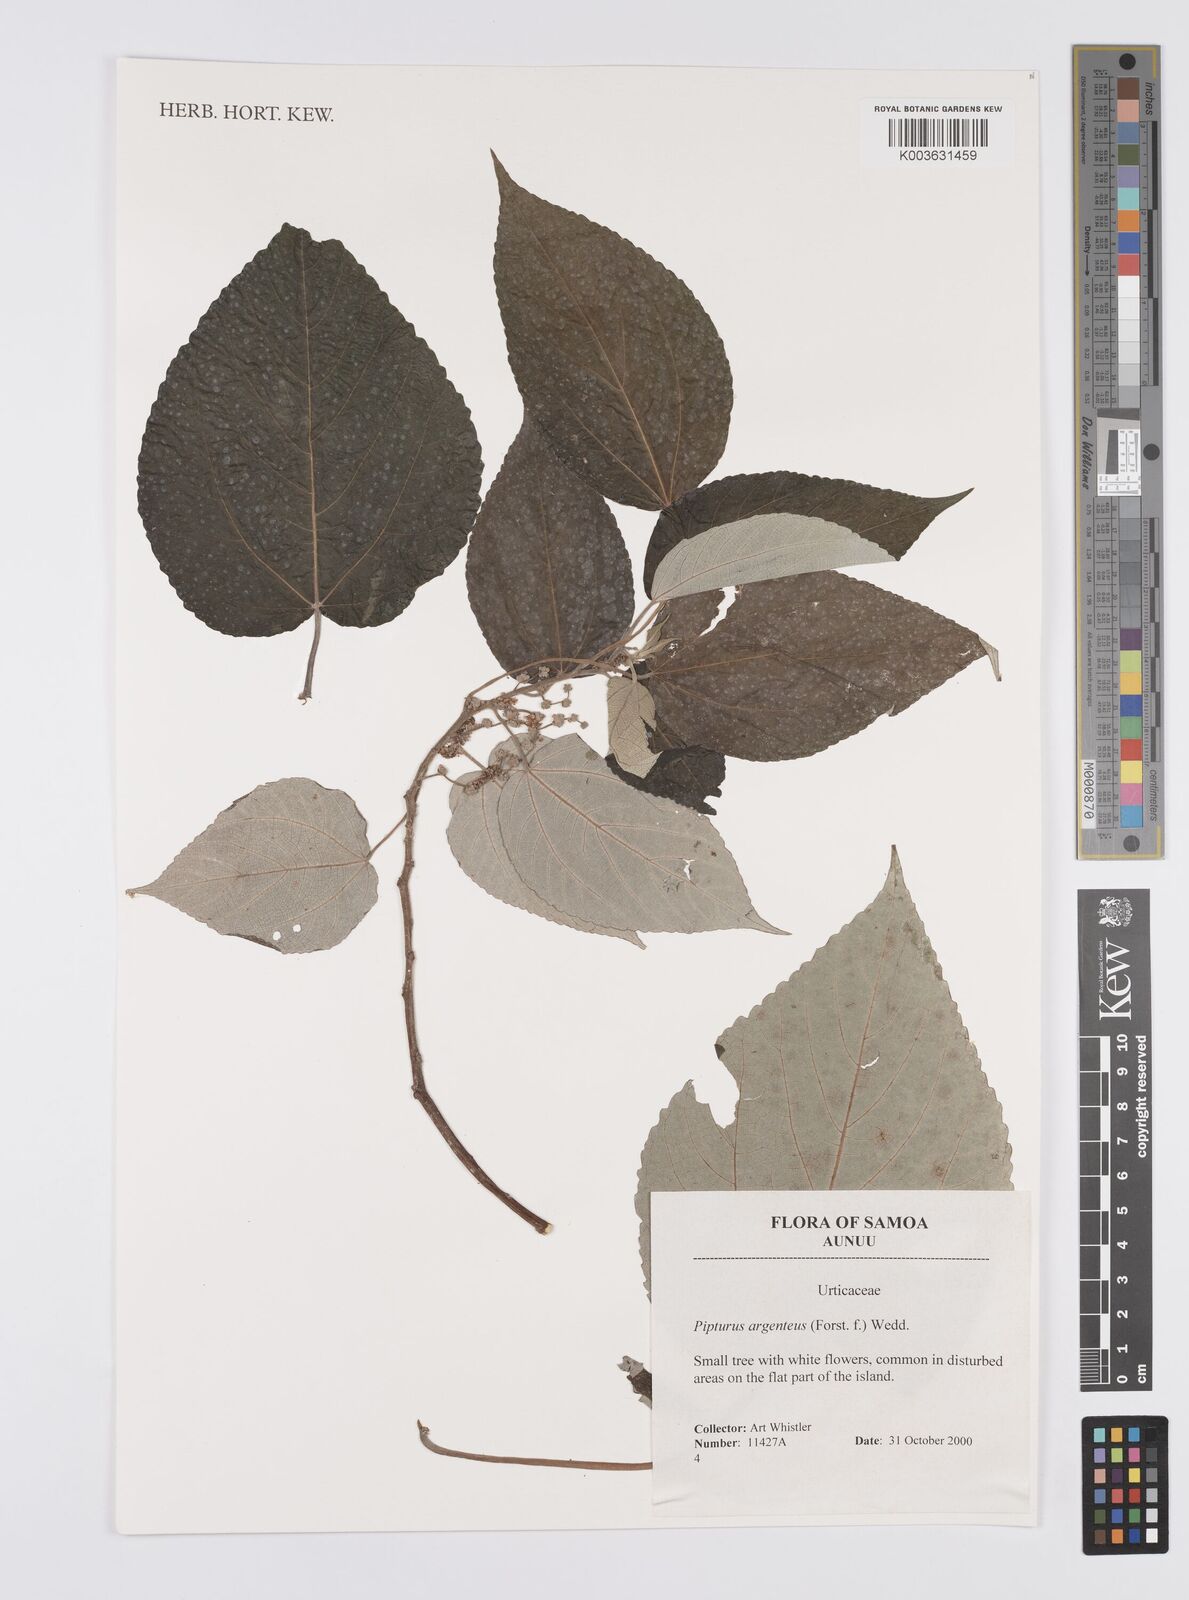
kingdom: Plantae
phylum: Tracheophyta
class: Magnoliopsida
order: Rosales
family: Urticaceae
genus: Pipturus
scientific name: Pipturus argenteus
